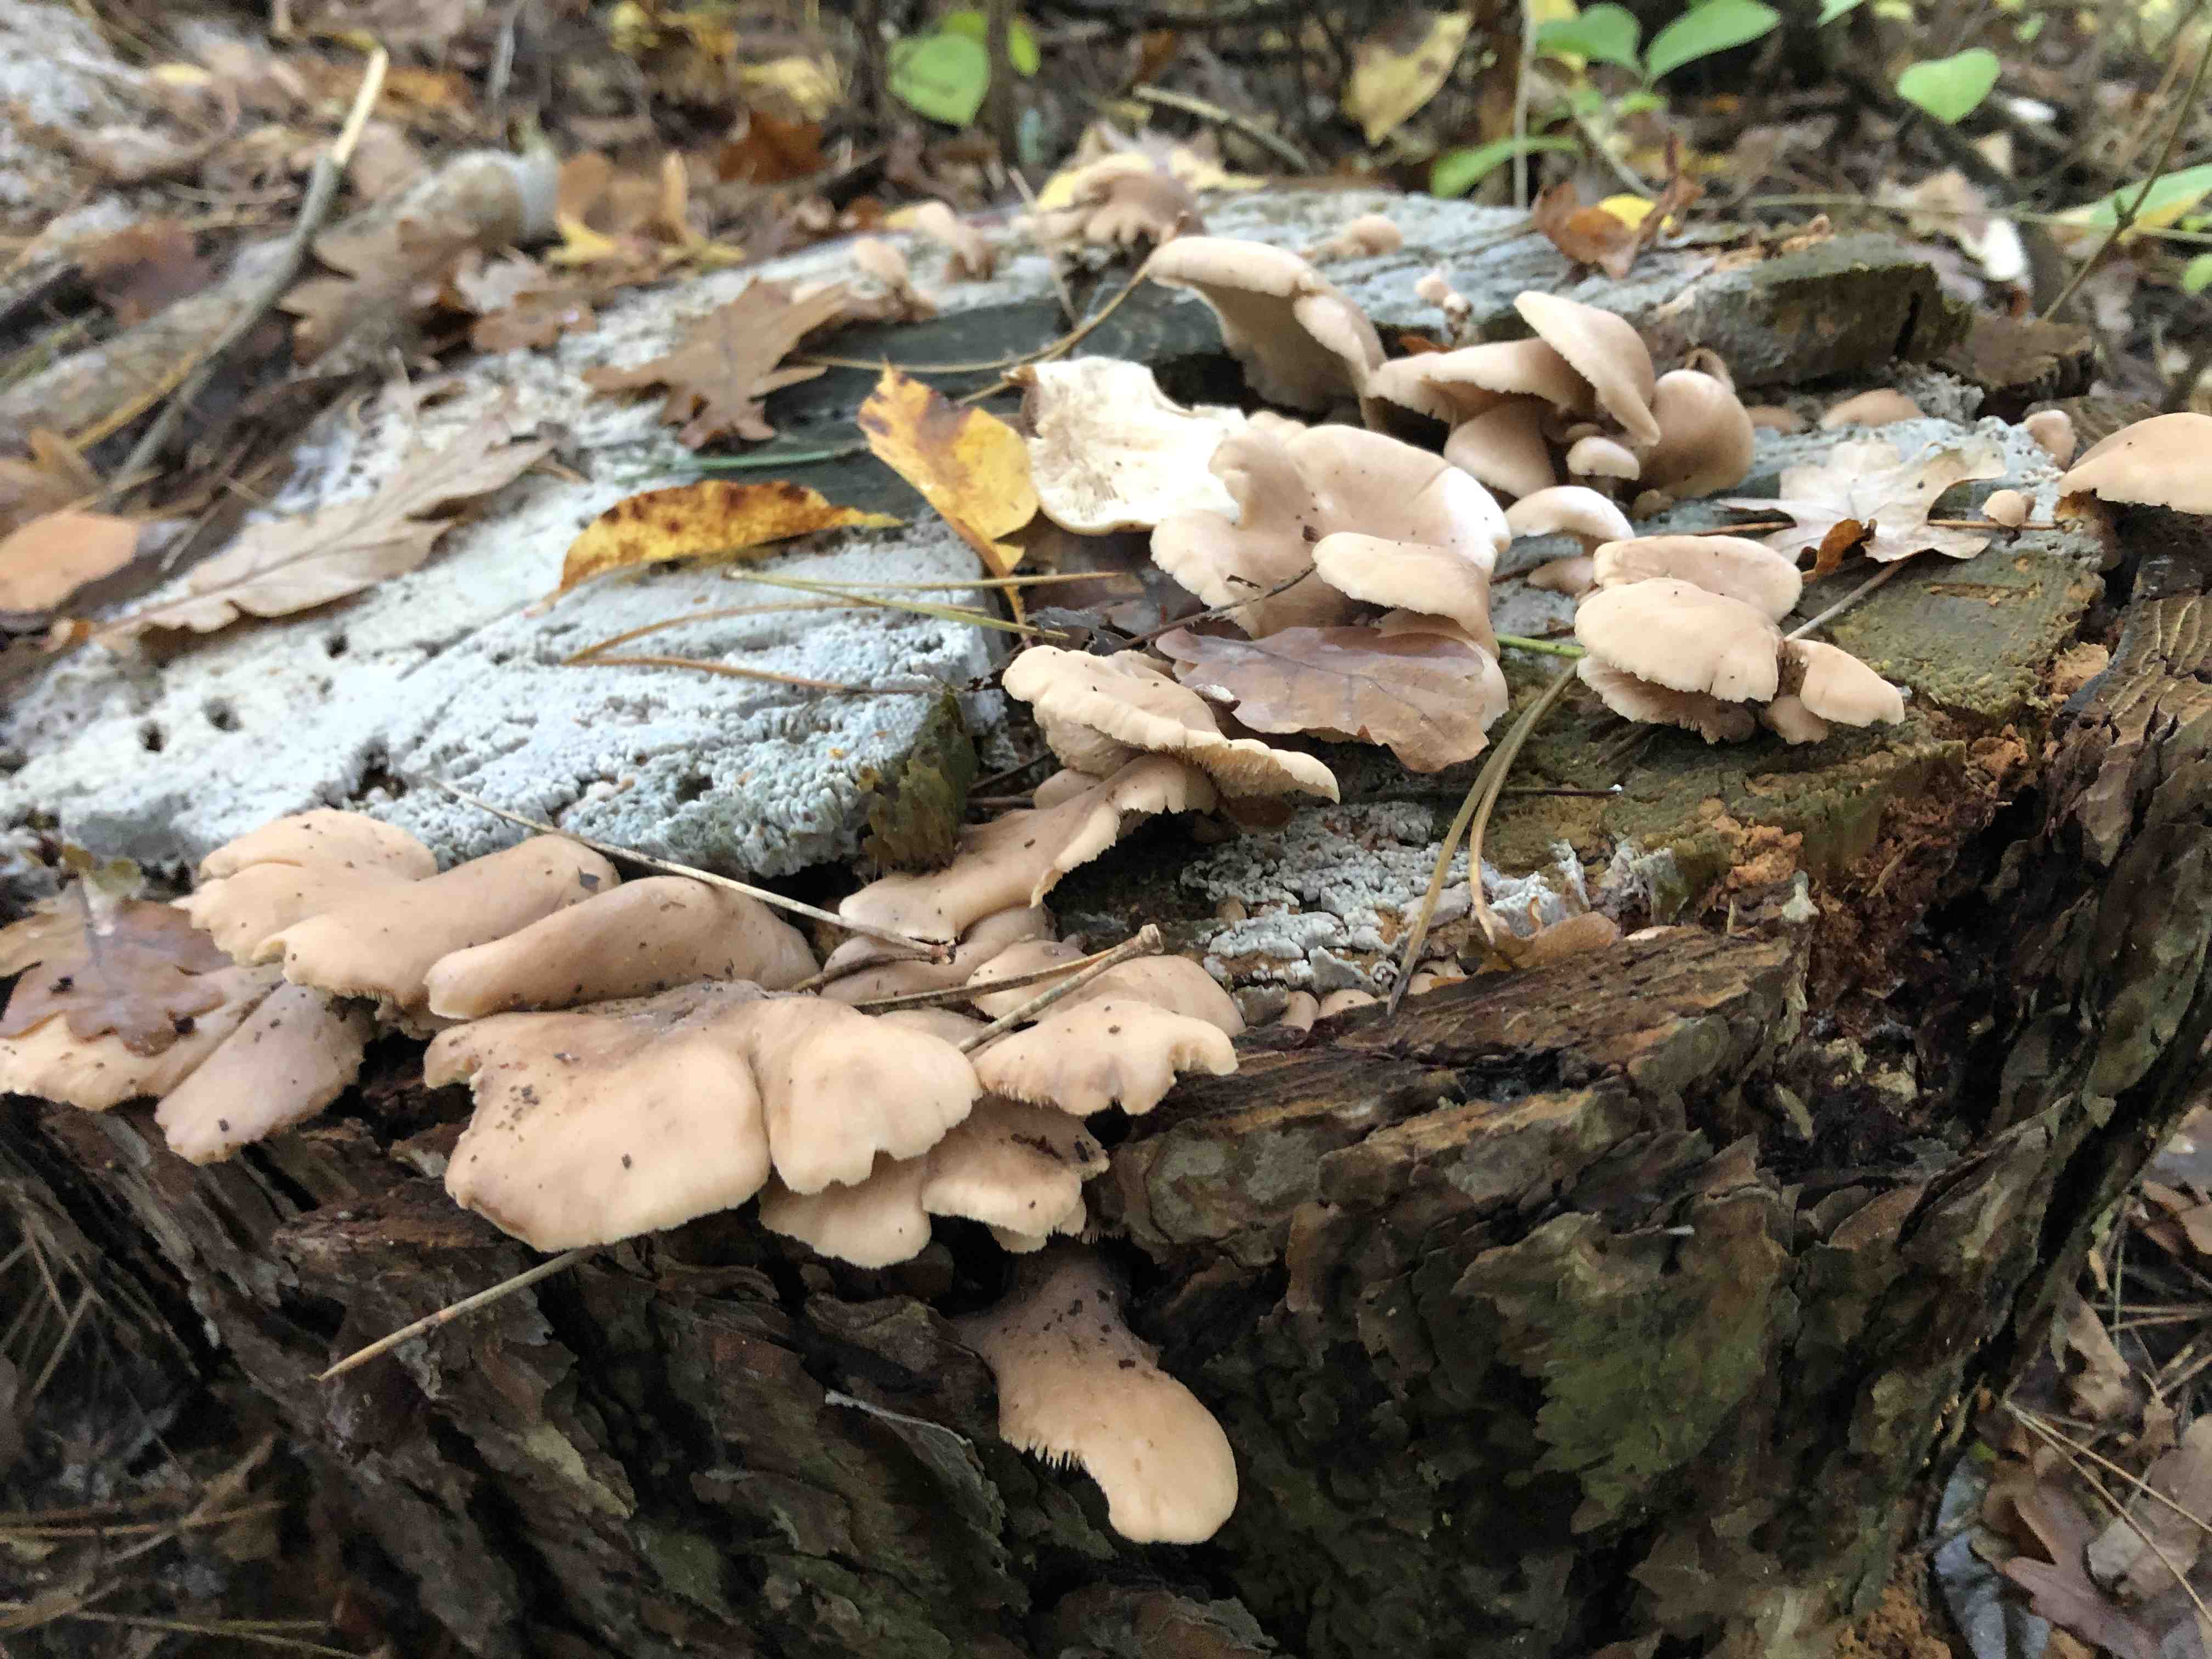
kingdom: Fungi
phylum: Basidiomycota
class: Agaricomycetes
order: Russulales
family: Auriscalpiaceae
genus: Lentinellus
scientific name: Lentinellus
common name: savbladhat
